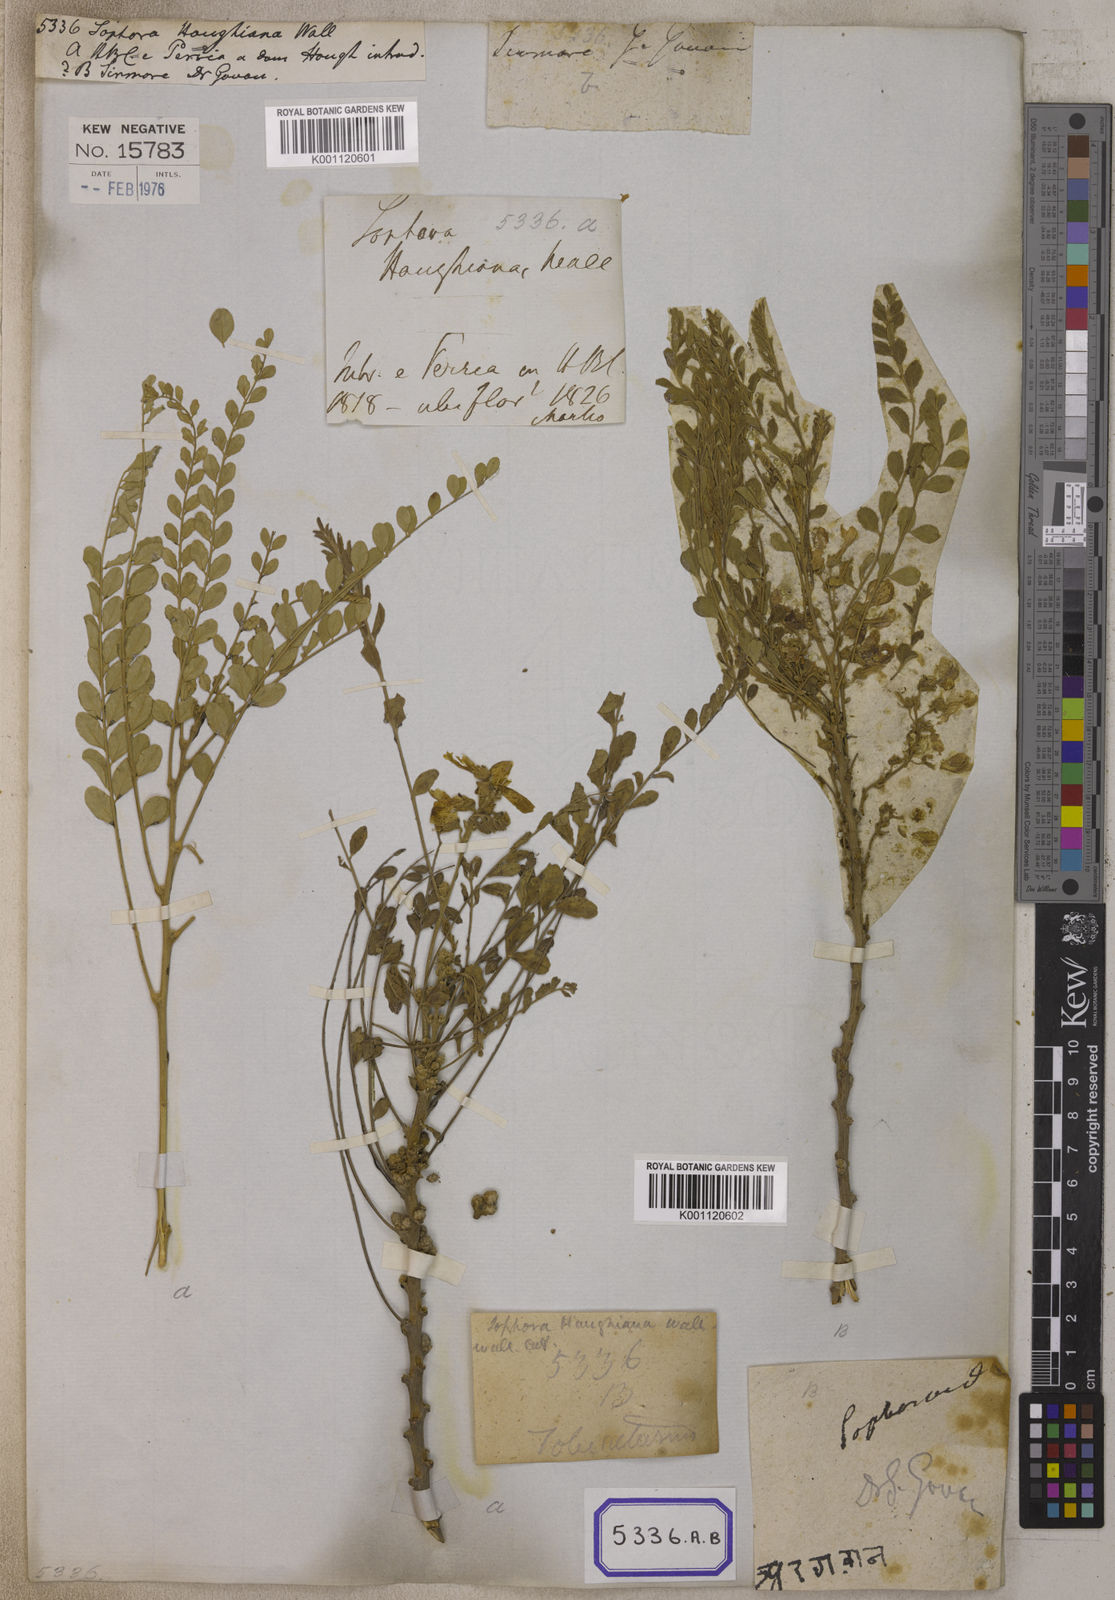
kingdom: Plantae
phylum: Tracheophyta
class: Magnoliopsida
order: Fabales
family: Fabaceae
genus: Sophora
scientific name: Sophora mollis
